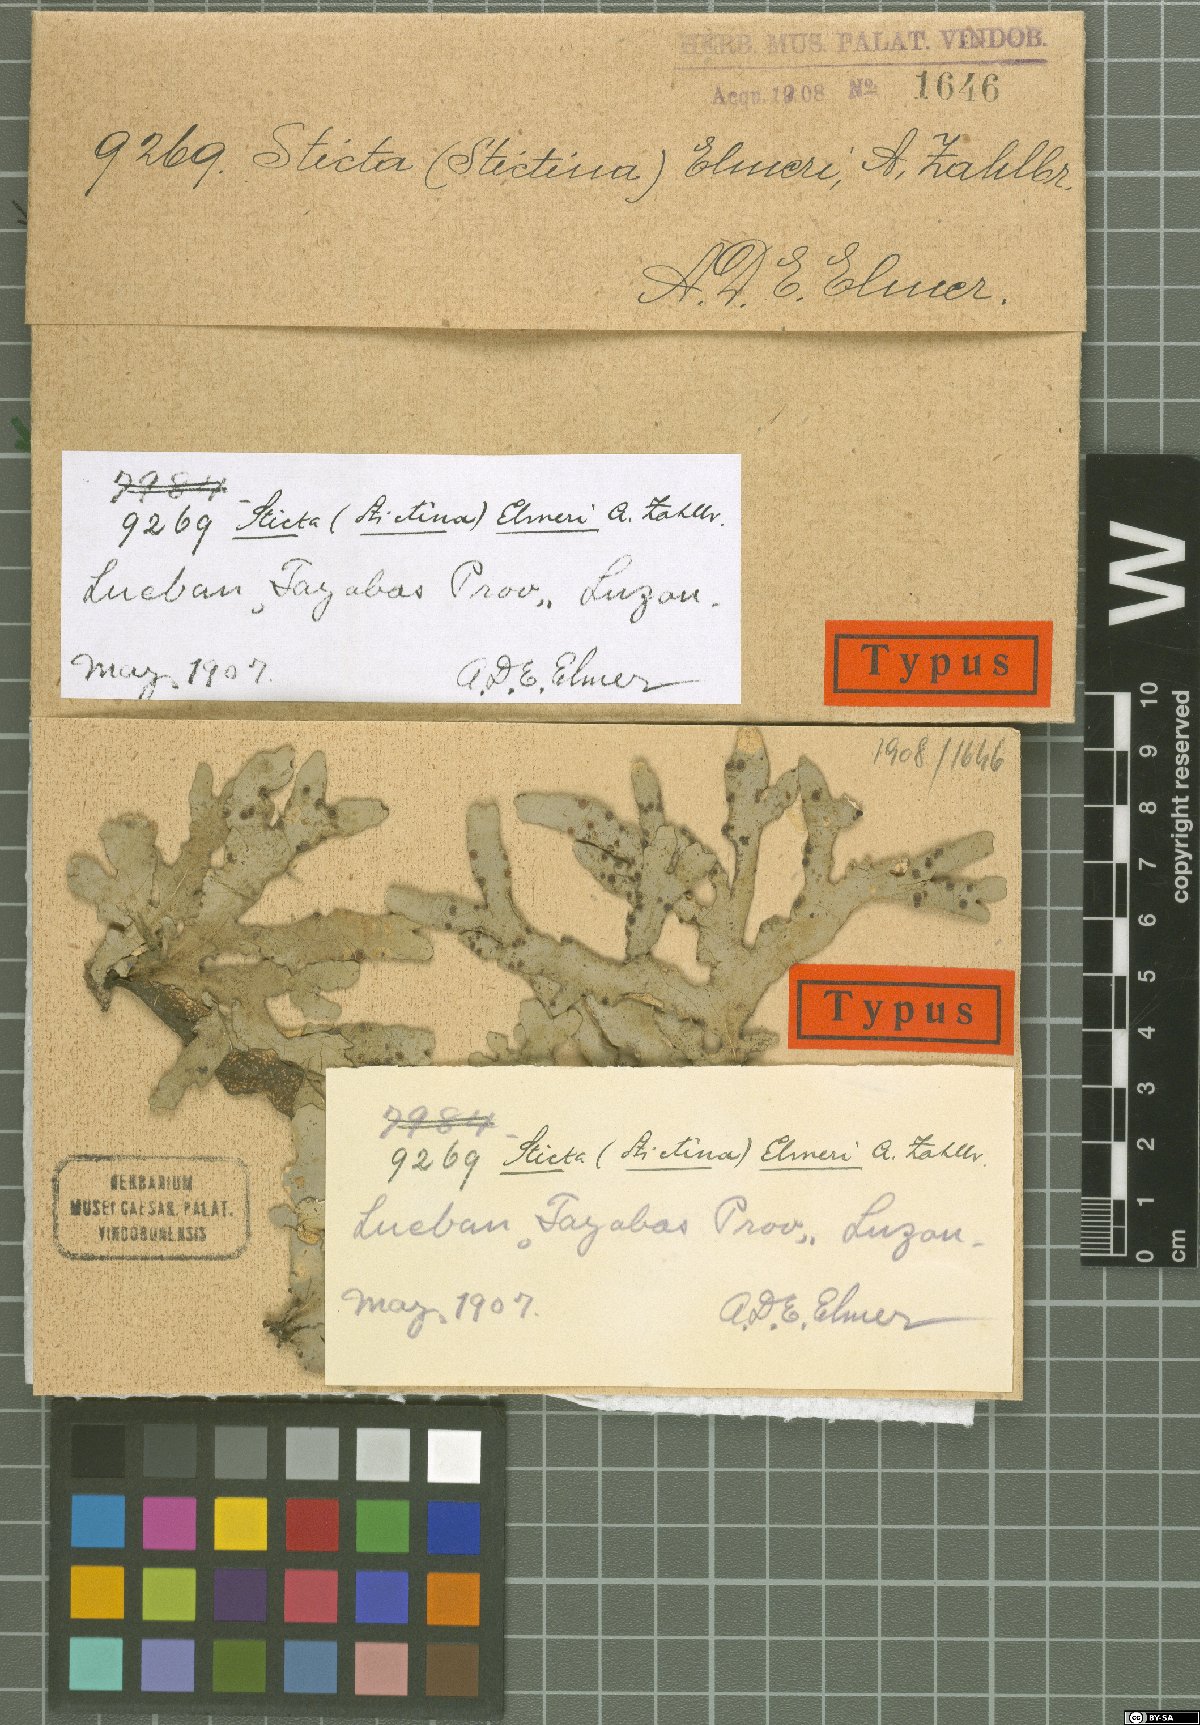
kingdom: Fungi
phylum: Ascomycota
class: Lecanoromycetes
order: Peltigerales
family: Lobariaceae
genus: Sticta
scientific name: Sticta
